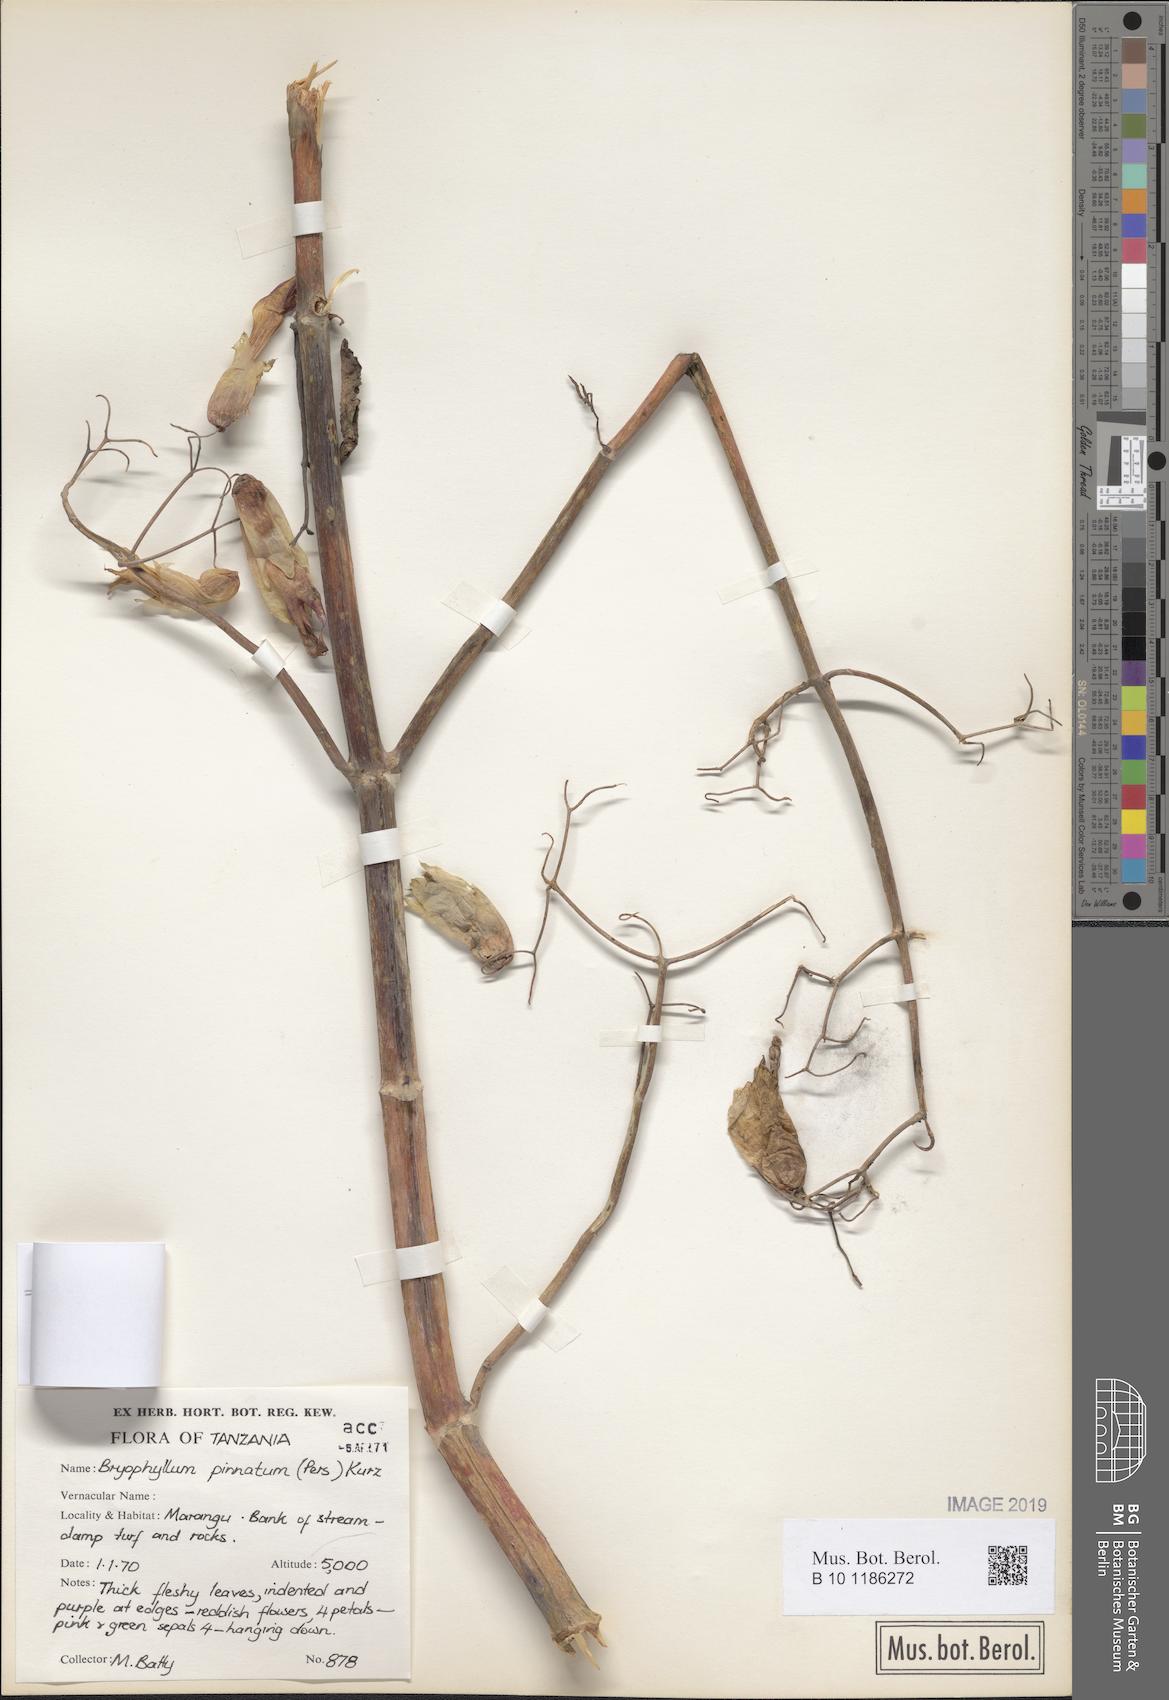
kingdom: Plantae
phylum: Tracheophyta
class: Magnoliopsida
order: Saxifragales
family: Crassulaceae
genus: Kalanchoe
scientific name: Kalanchoe pinnata
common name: Cathedral bells
